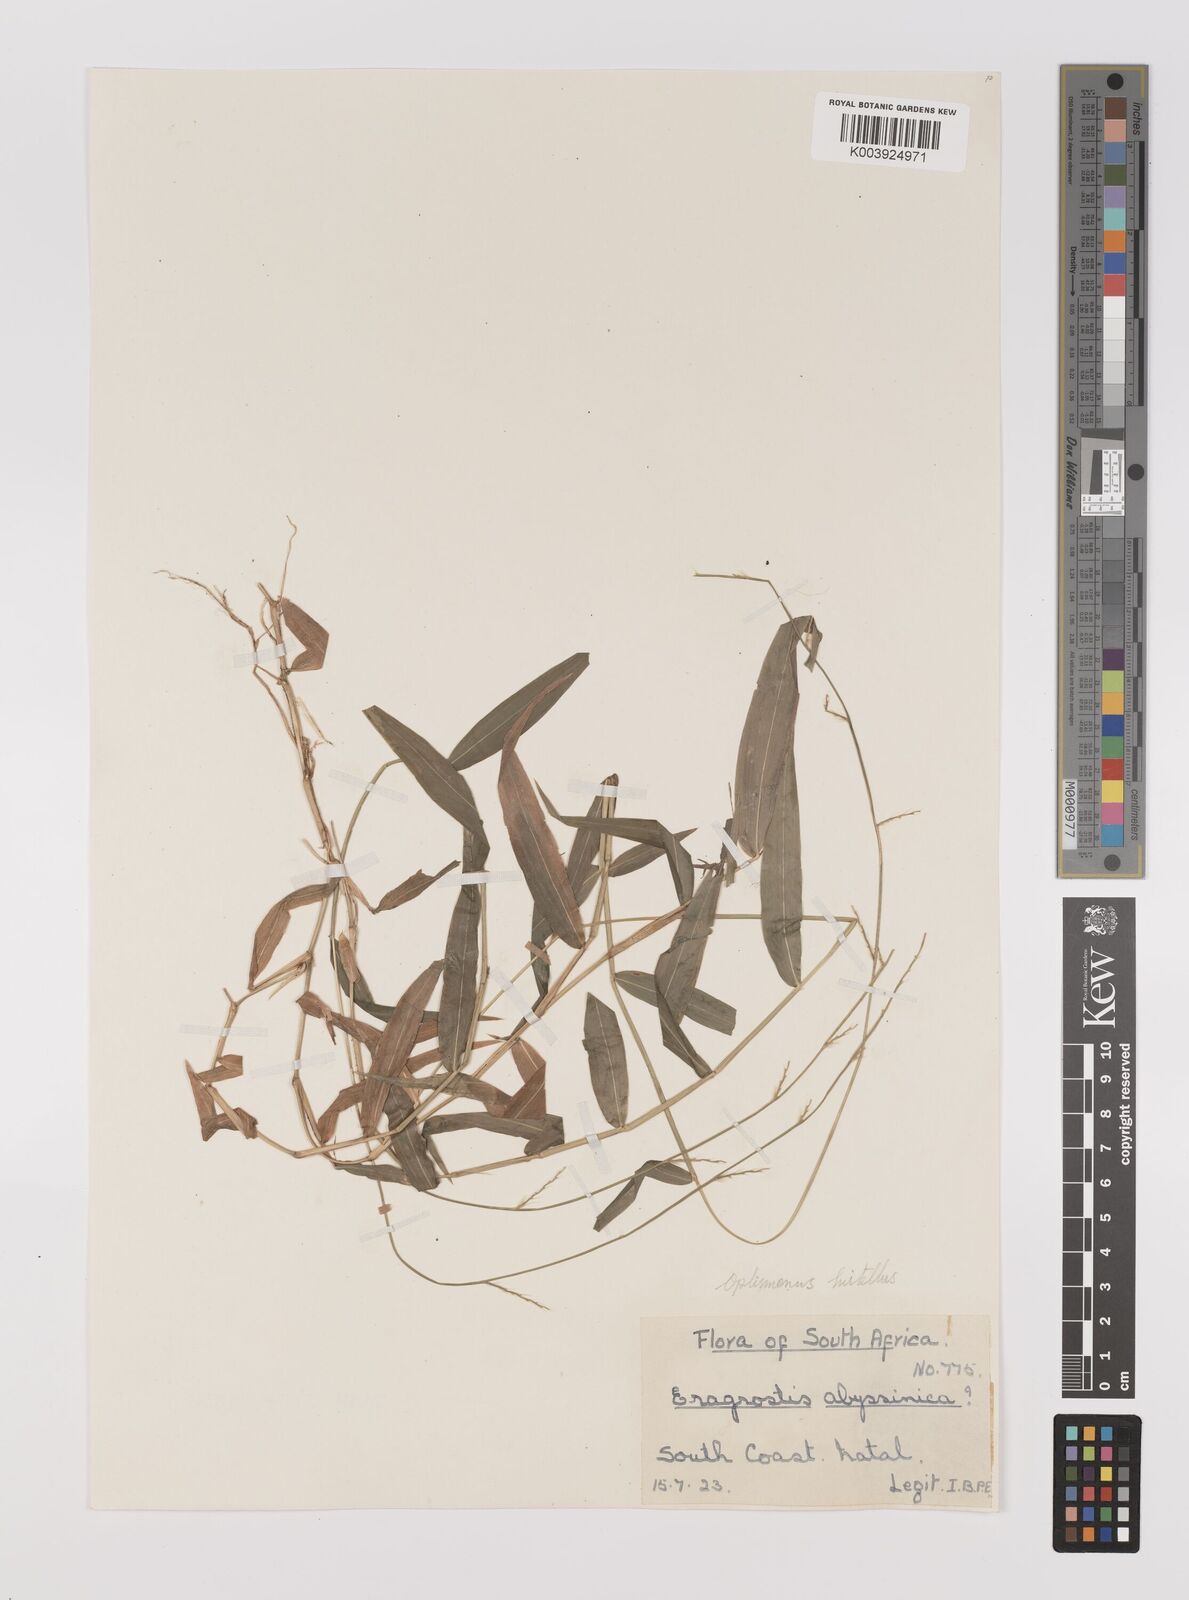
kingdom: Plantae
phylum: Tracheophyta
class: Liliopsida
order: Poales
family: Poaceae
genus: Oplismenus
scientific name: Oplismenus hirtellus
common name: Basketgrass
